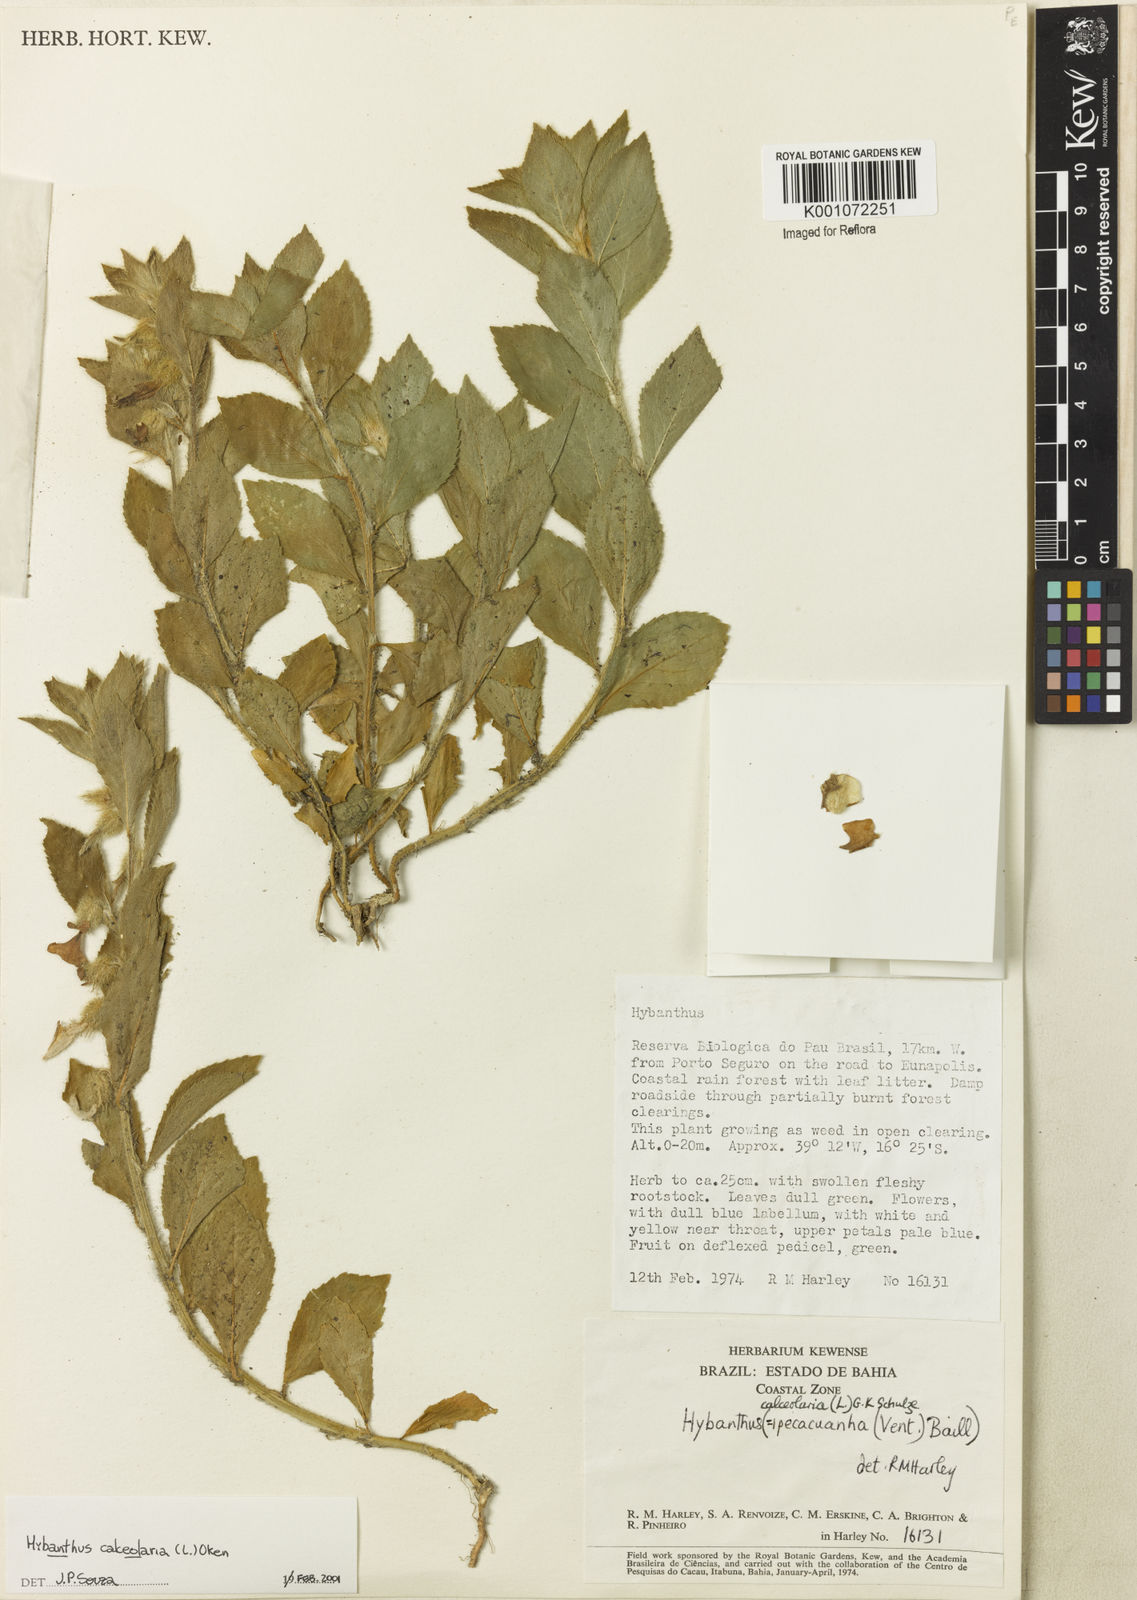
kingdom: Plantae
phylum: Tracheophyta
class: Magnoliopsida
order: Malpighiales
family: Violaceae
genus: Pombalia
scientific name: Pombalia calceolaria
